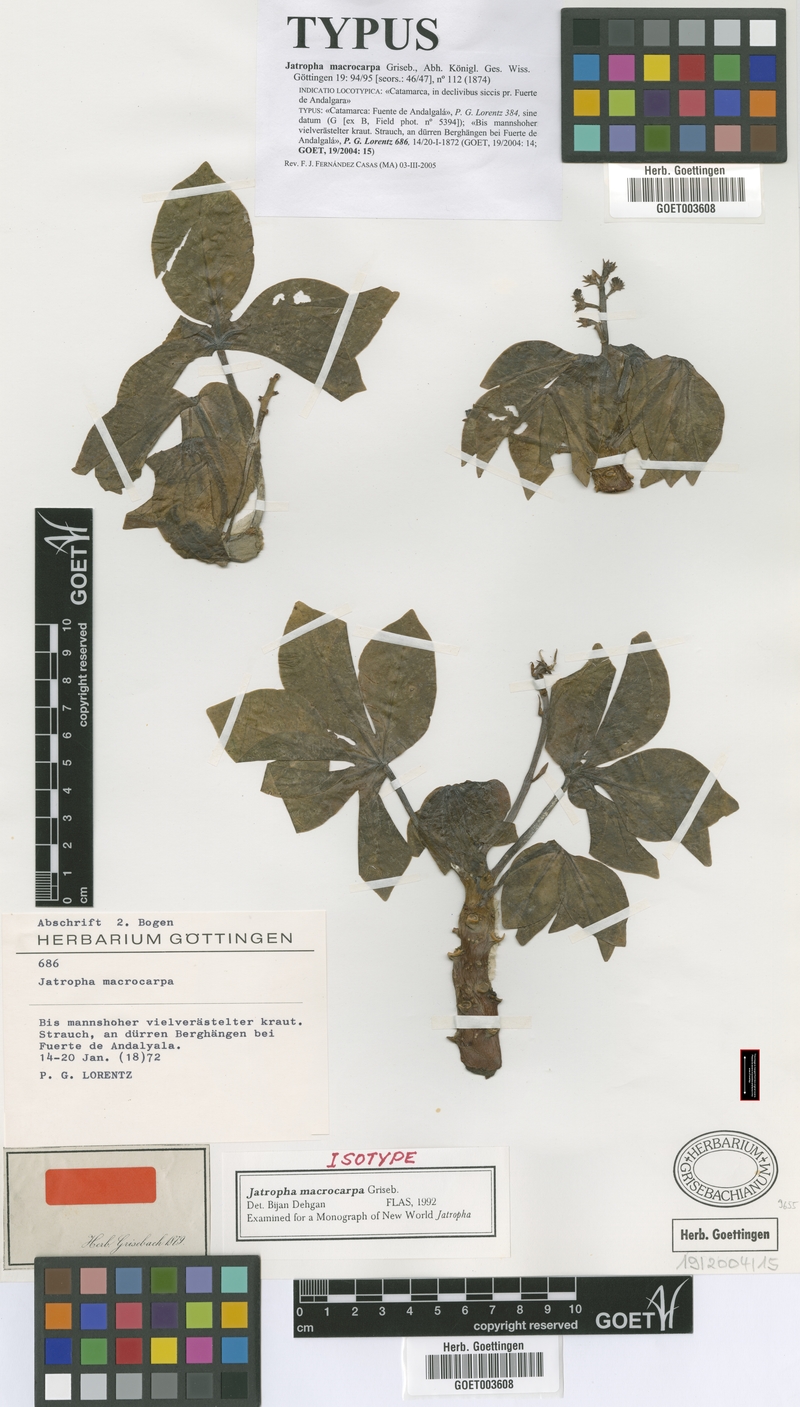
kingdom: Plantae
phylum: Tracheophyta
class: Magnoliopsida
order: Malpighiales
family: Euphorbiaceae
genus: Jatropha
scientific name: Jatropha macrocarpa
